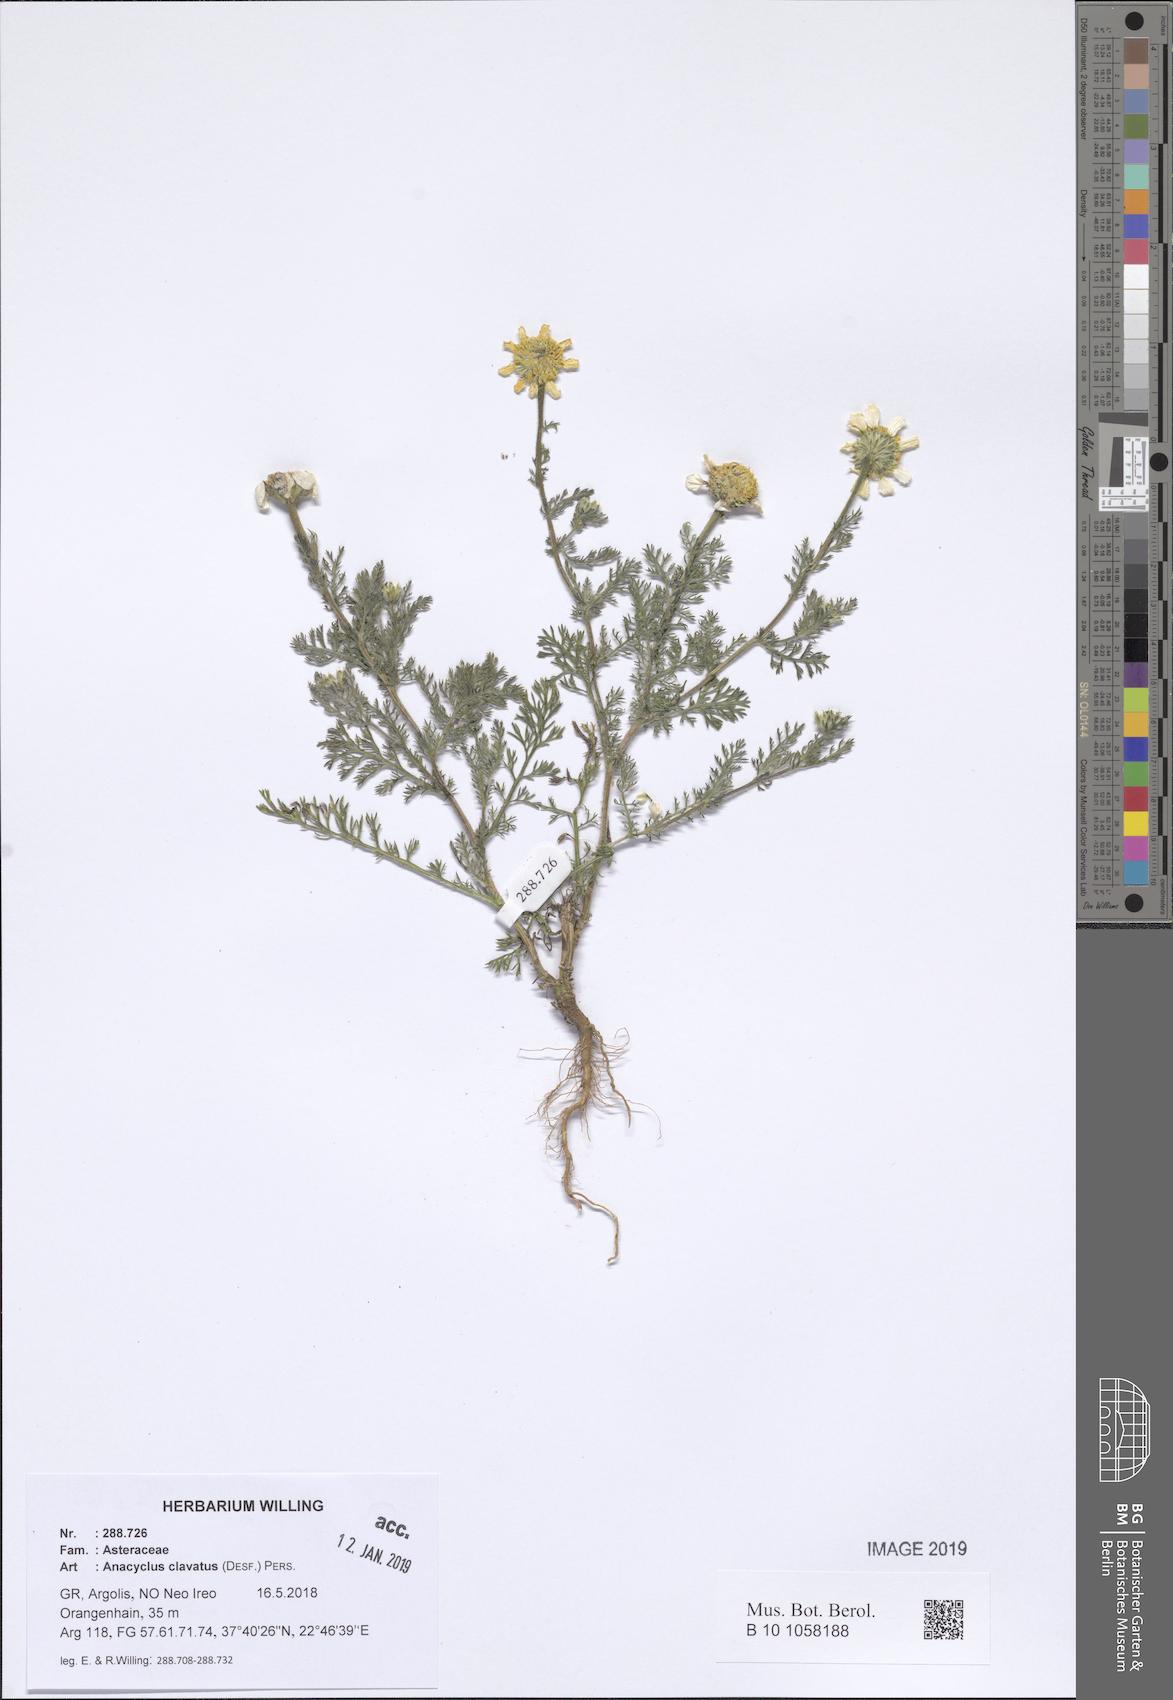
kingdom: Plantae
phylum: Tracheophyta
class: Magnoliopsida
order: Asterales
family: Asteraceae
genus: Anacyclus
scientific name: Anacyclus clavatus
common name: Whitebuttons
